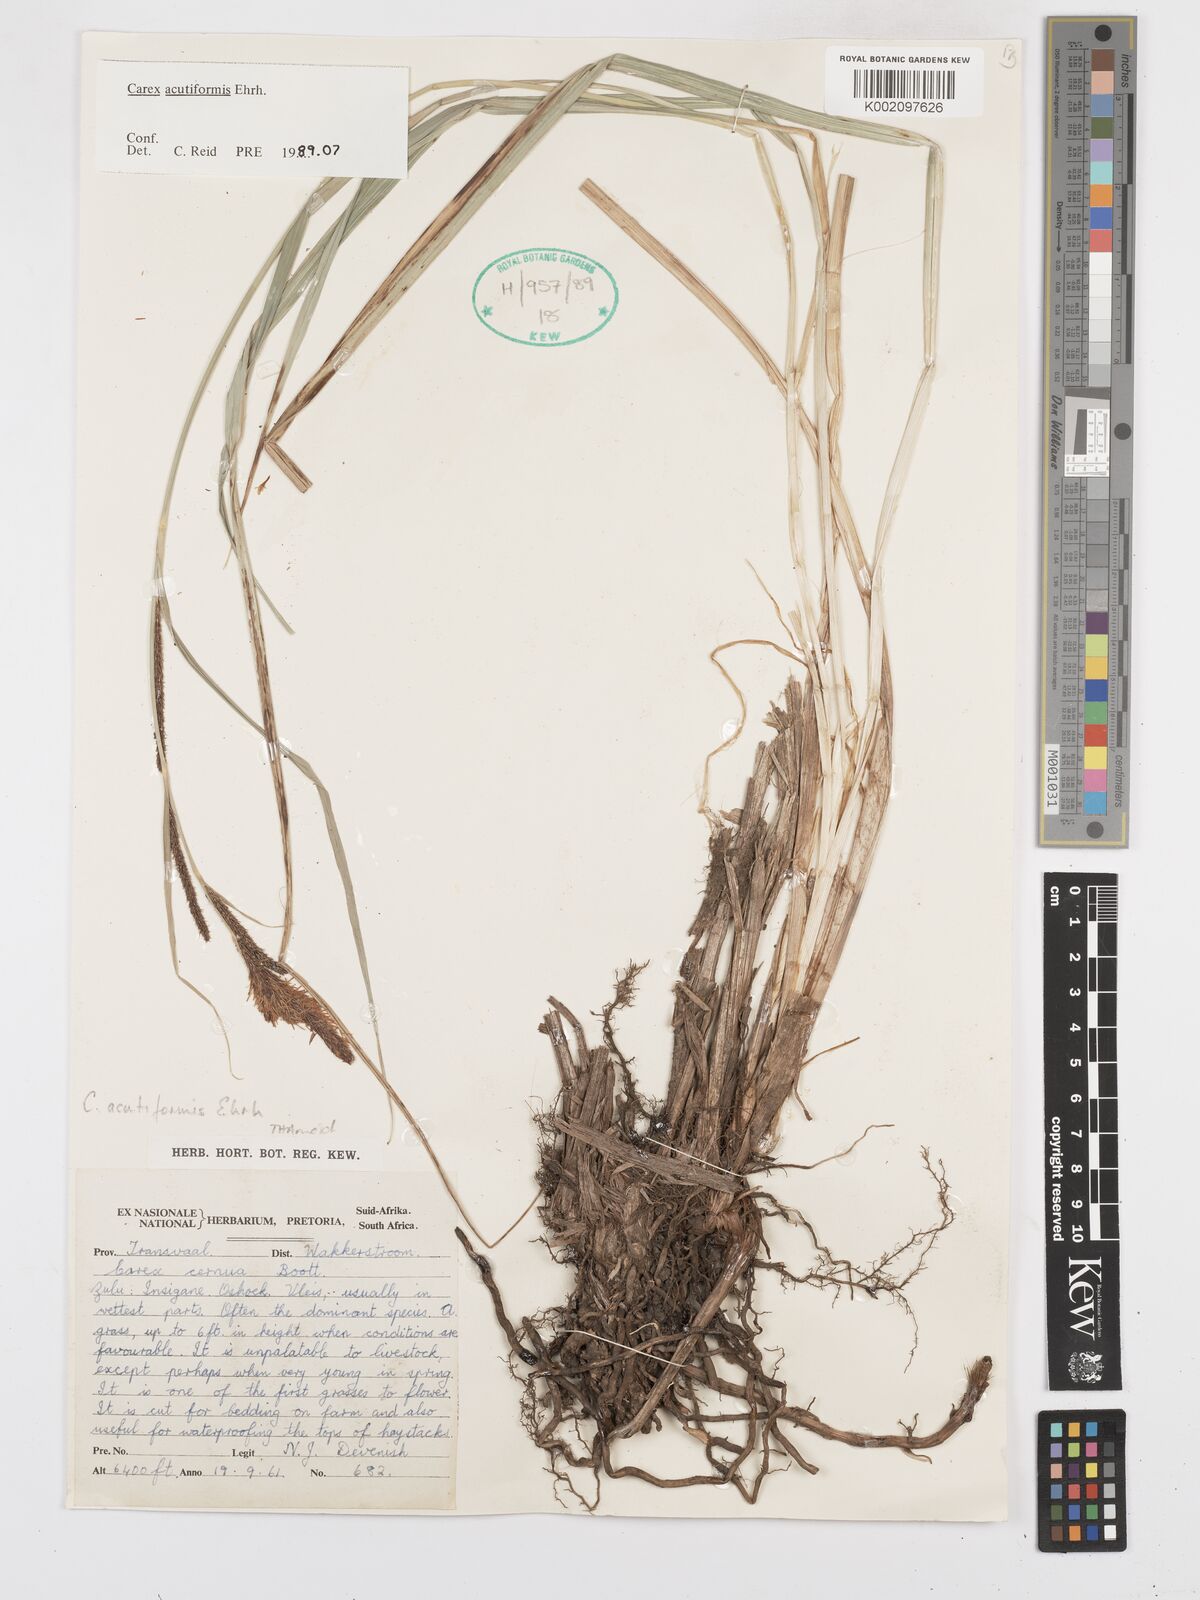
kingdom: Plantae
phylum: Tracheophyta
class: Liliopsida
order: Poales
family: Cyperaceae
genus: Carex
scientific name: Carex acutiformis
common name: Lesser pond-sedge
